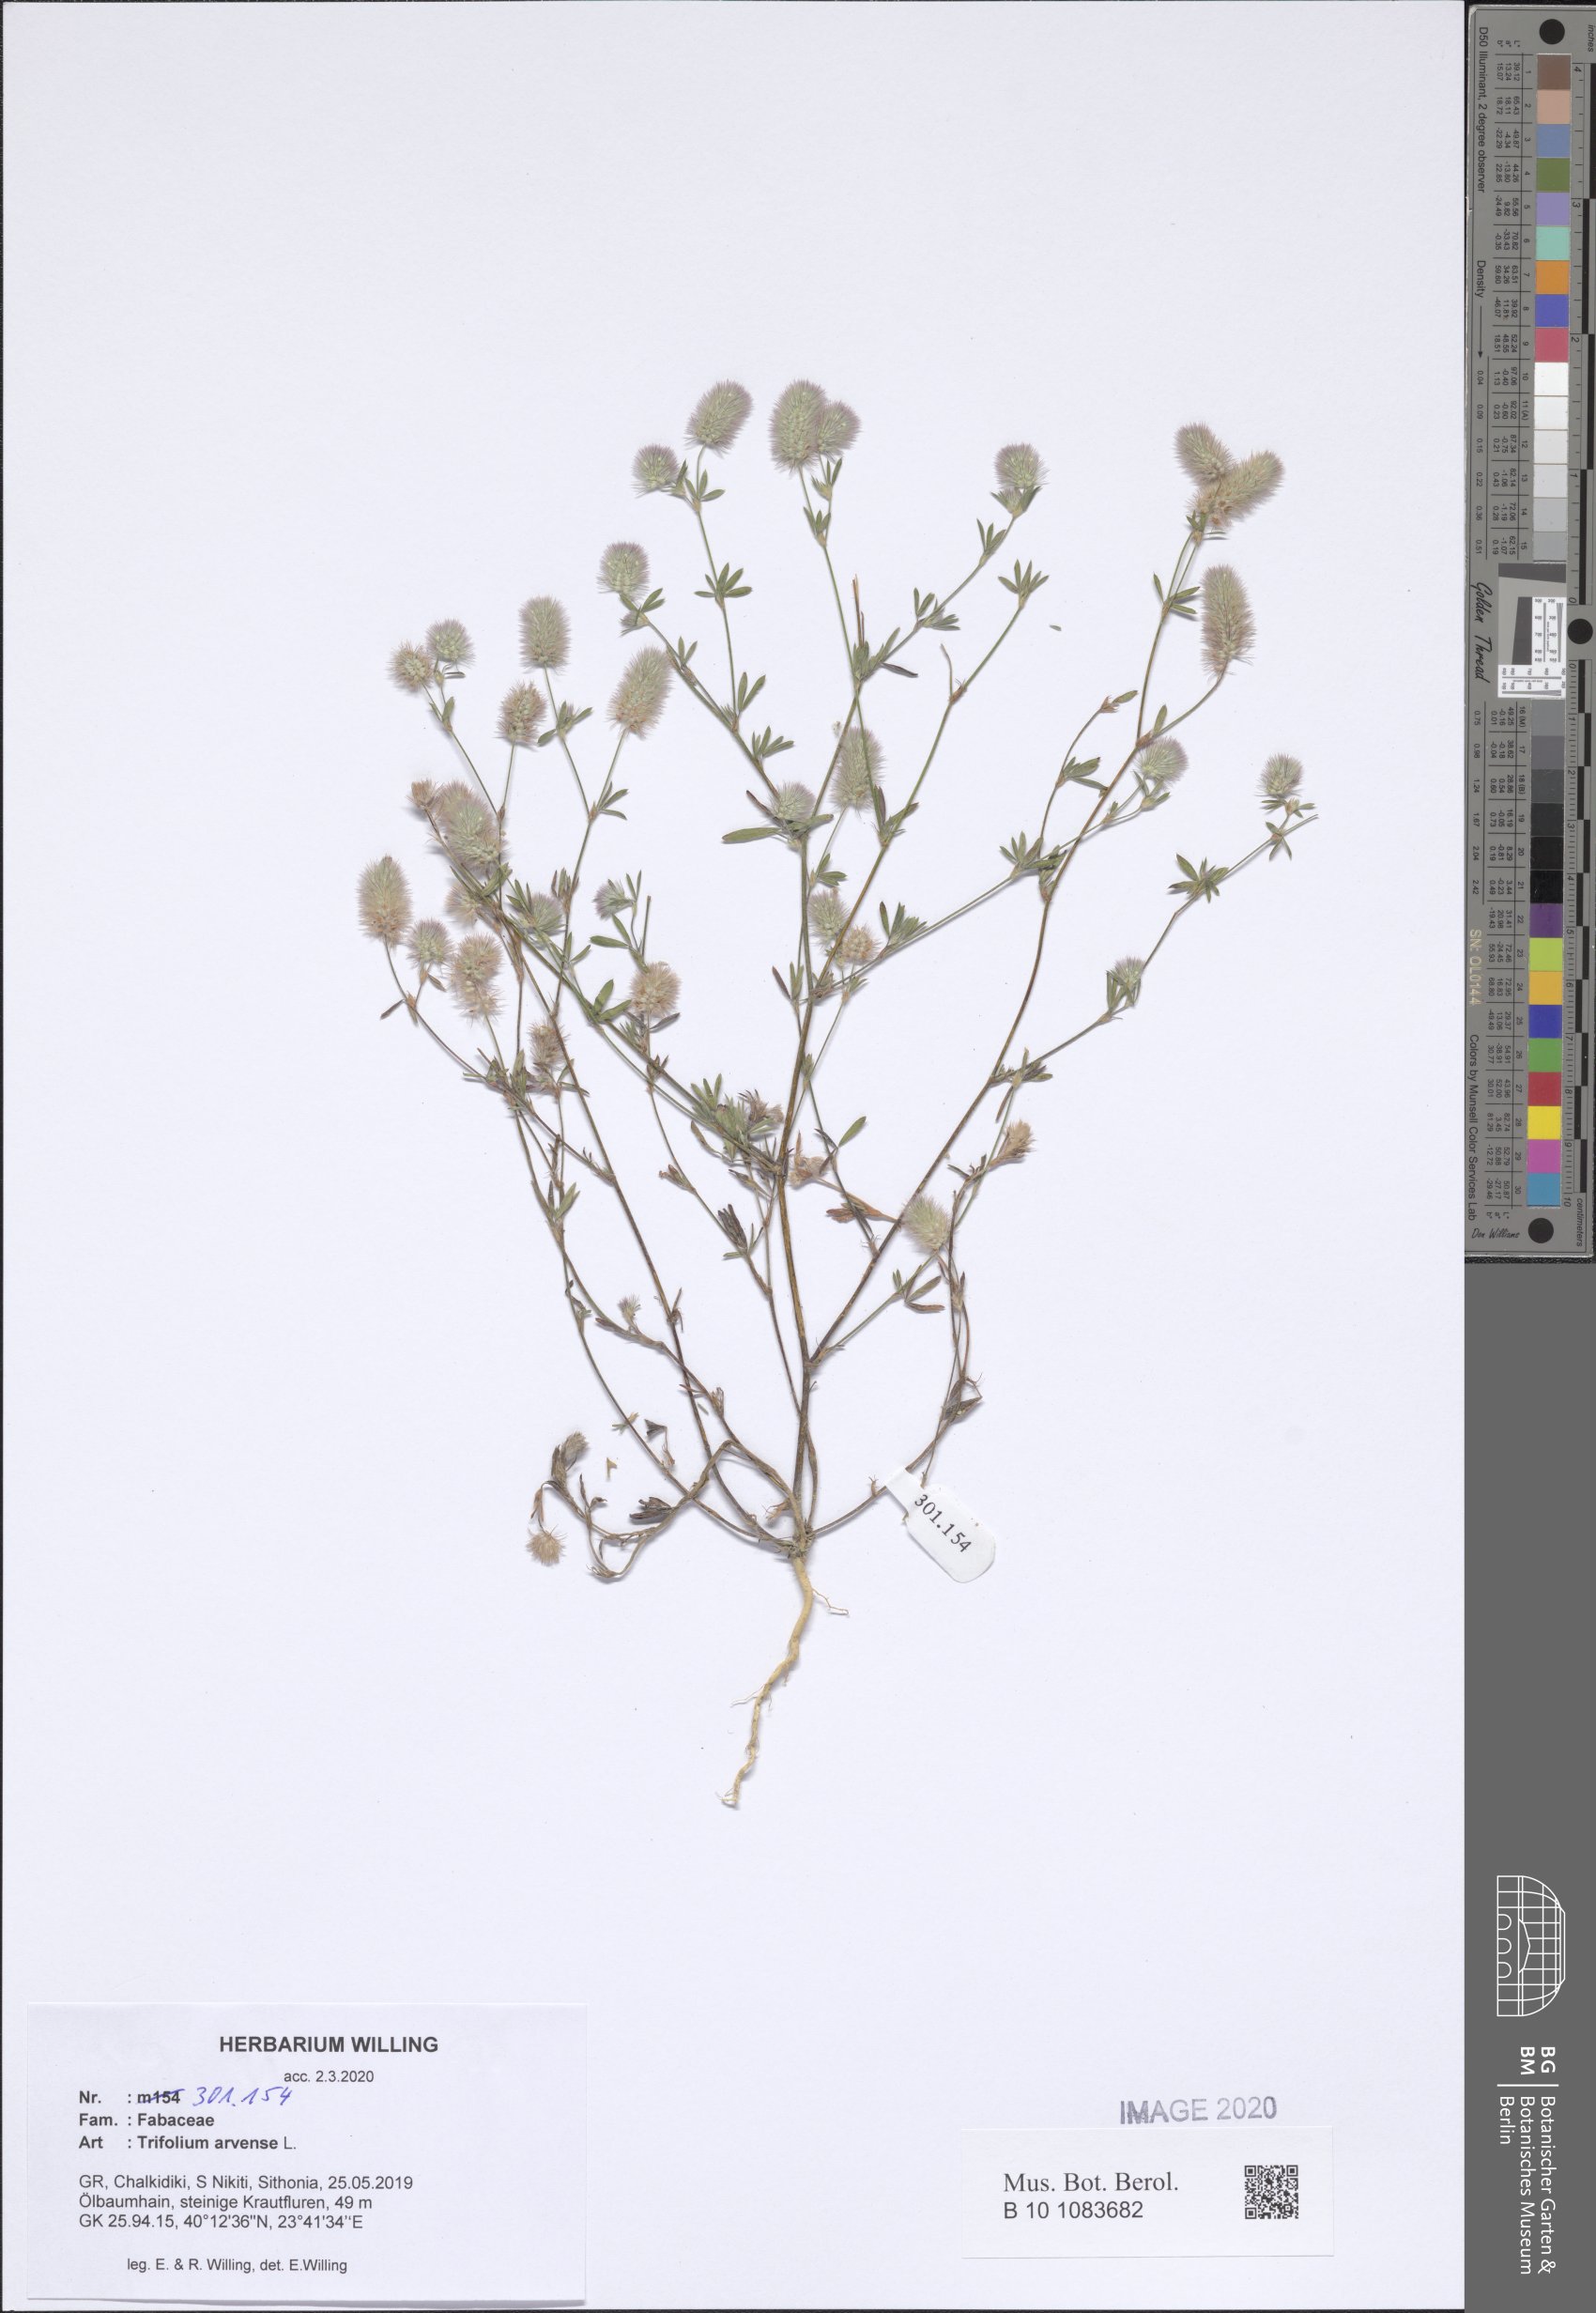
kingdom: Plantae
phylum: Tracheophyta
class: Magnoliopsida
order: Fabales
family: Fabaceae
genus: Trifolium
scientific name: Trifolium arvense
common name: Hare's-foot clover
